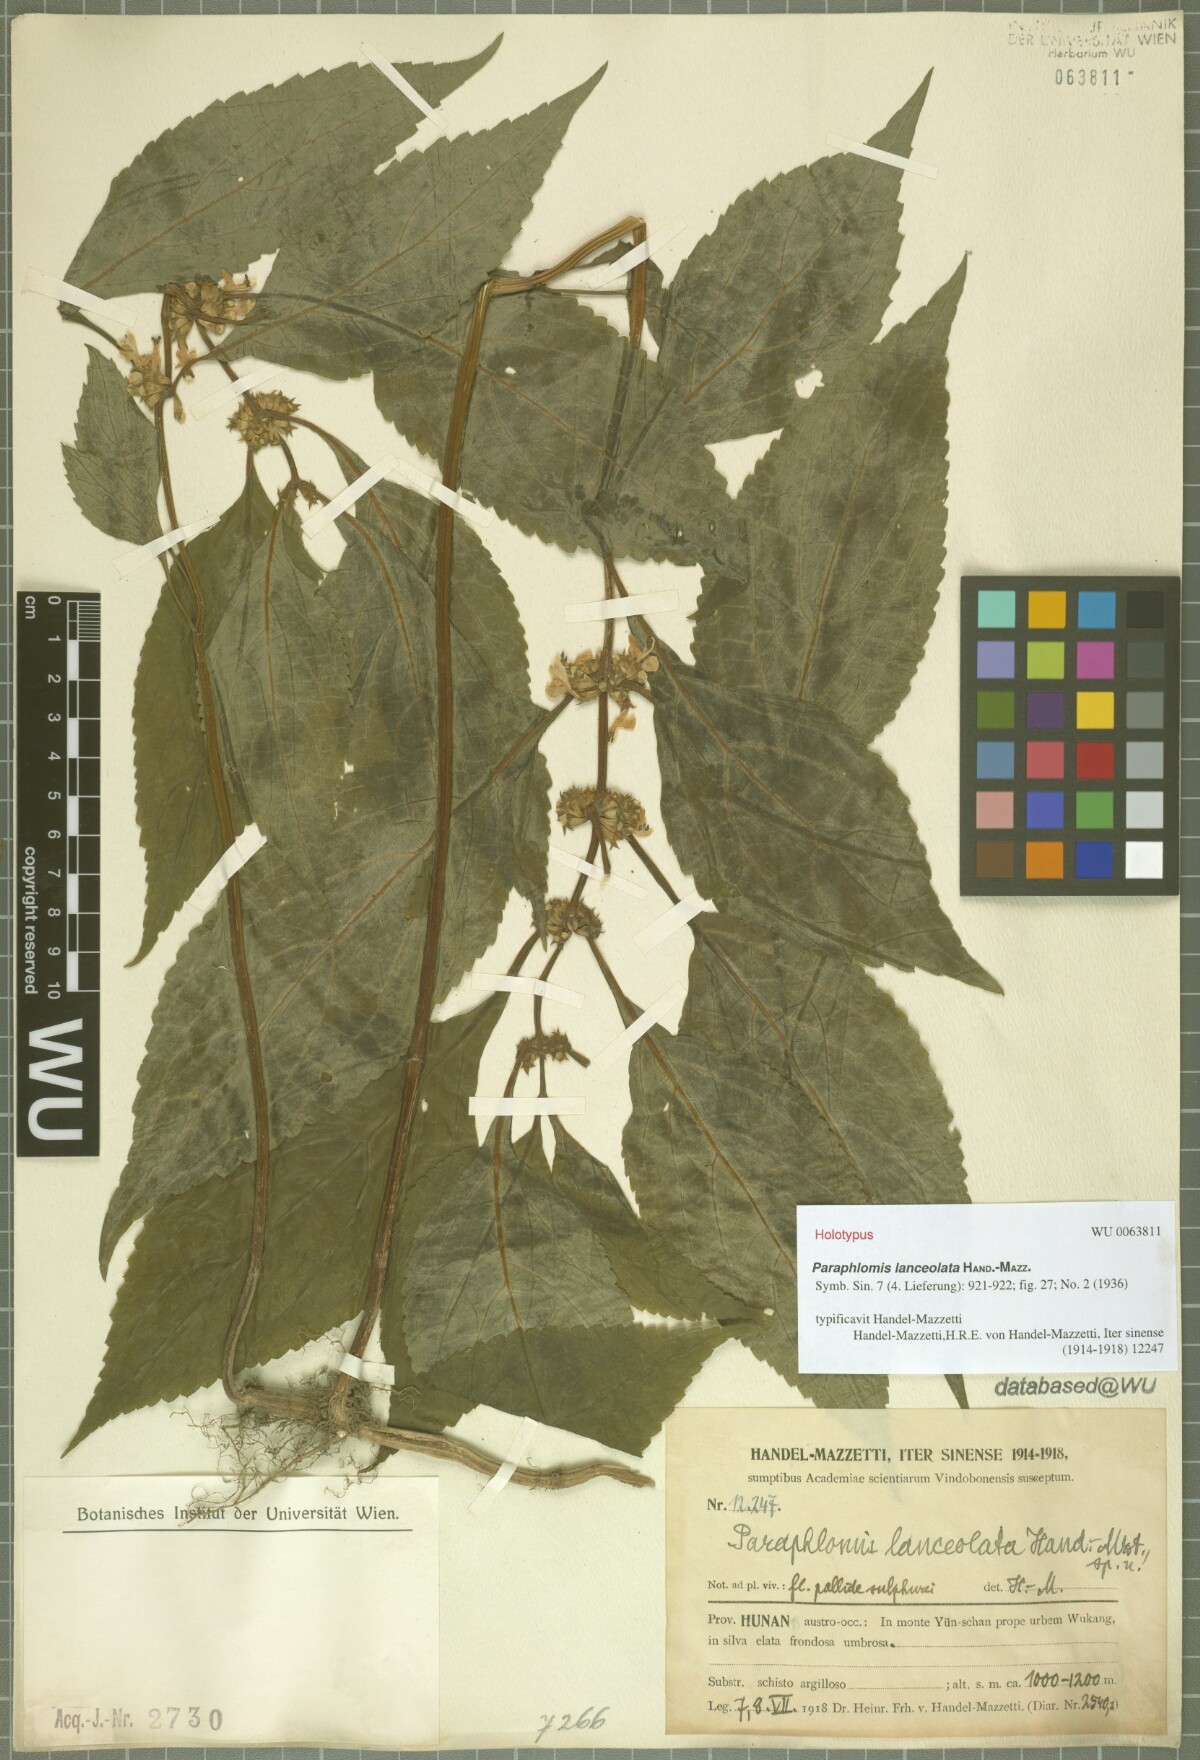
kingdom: Plantae
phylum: Tracheophyta
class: Magnoliopsida
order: Lamiales
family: Lamiaceae
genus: Paraphlomis
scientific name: Paraphlomis lanceolata
